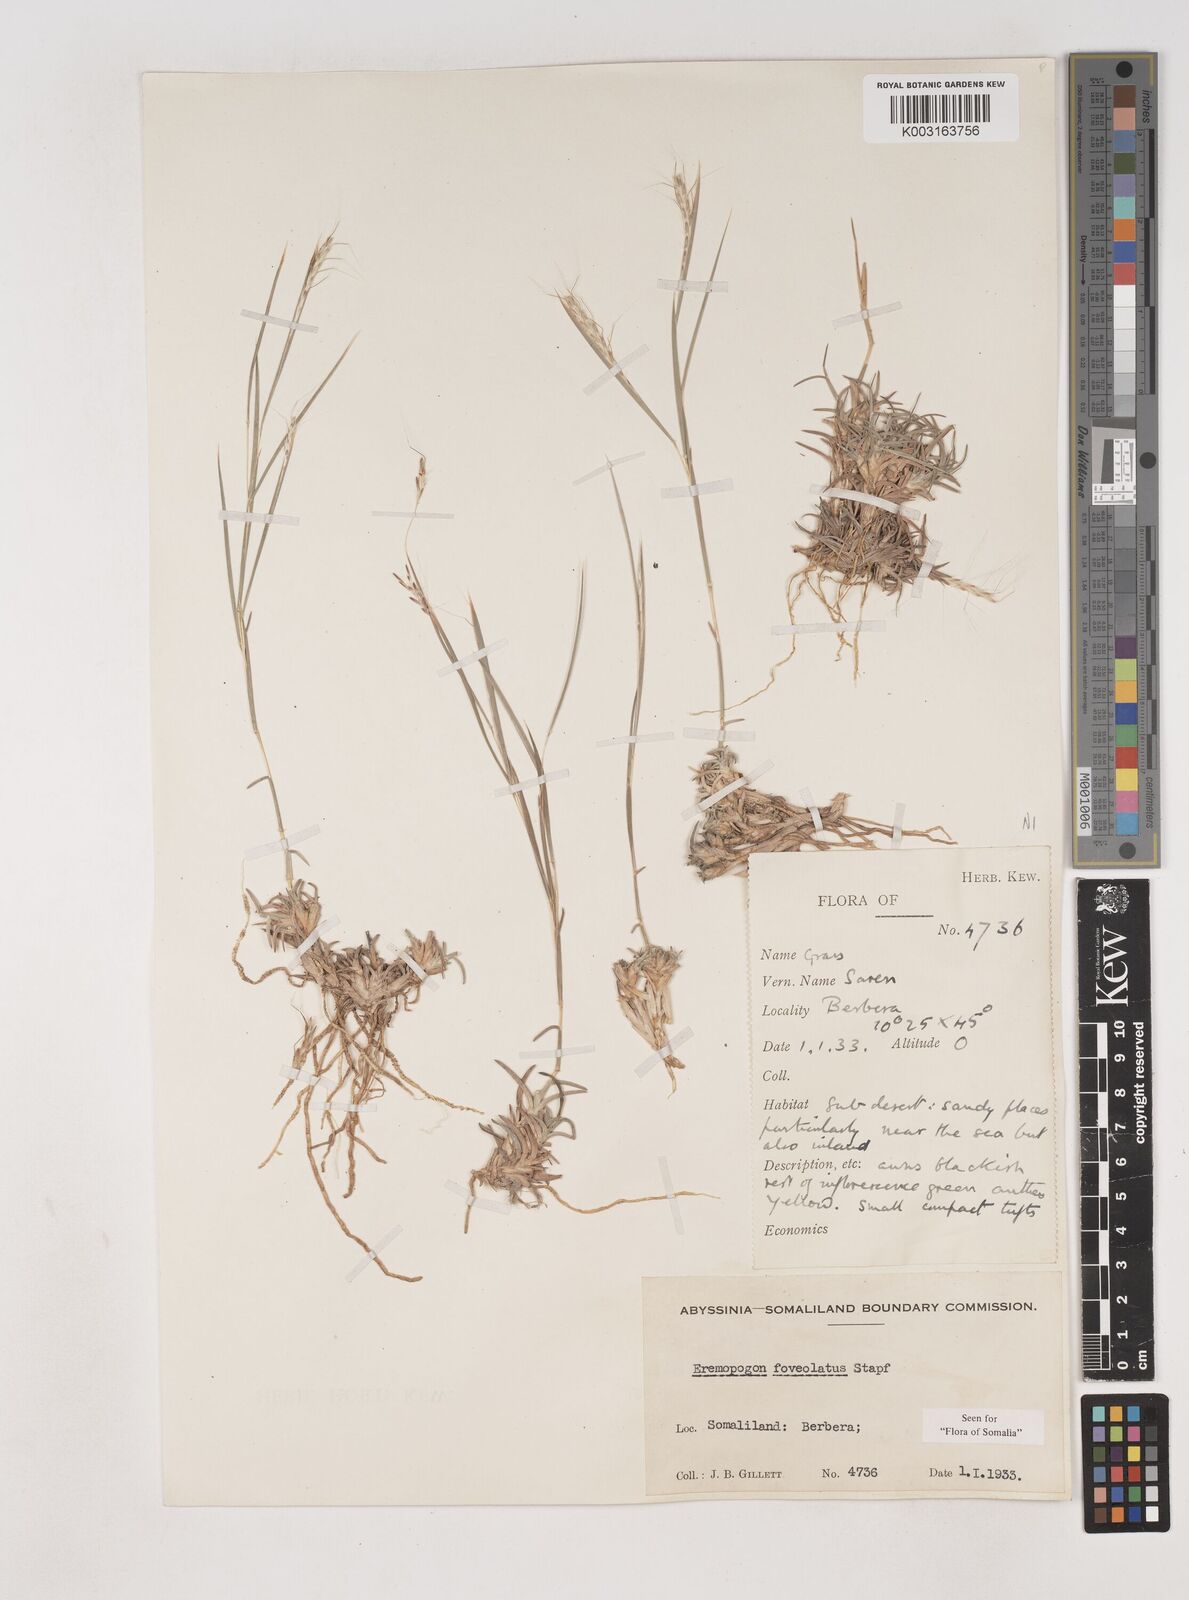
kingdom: Plantae
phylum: Tracheophyta
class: Liliopsida
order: Poales
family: Poaceae
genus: Dichanthium
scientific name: Dichanthium foveolatum
